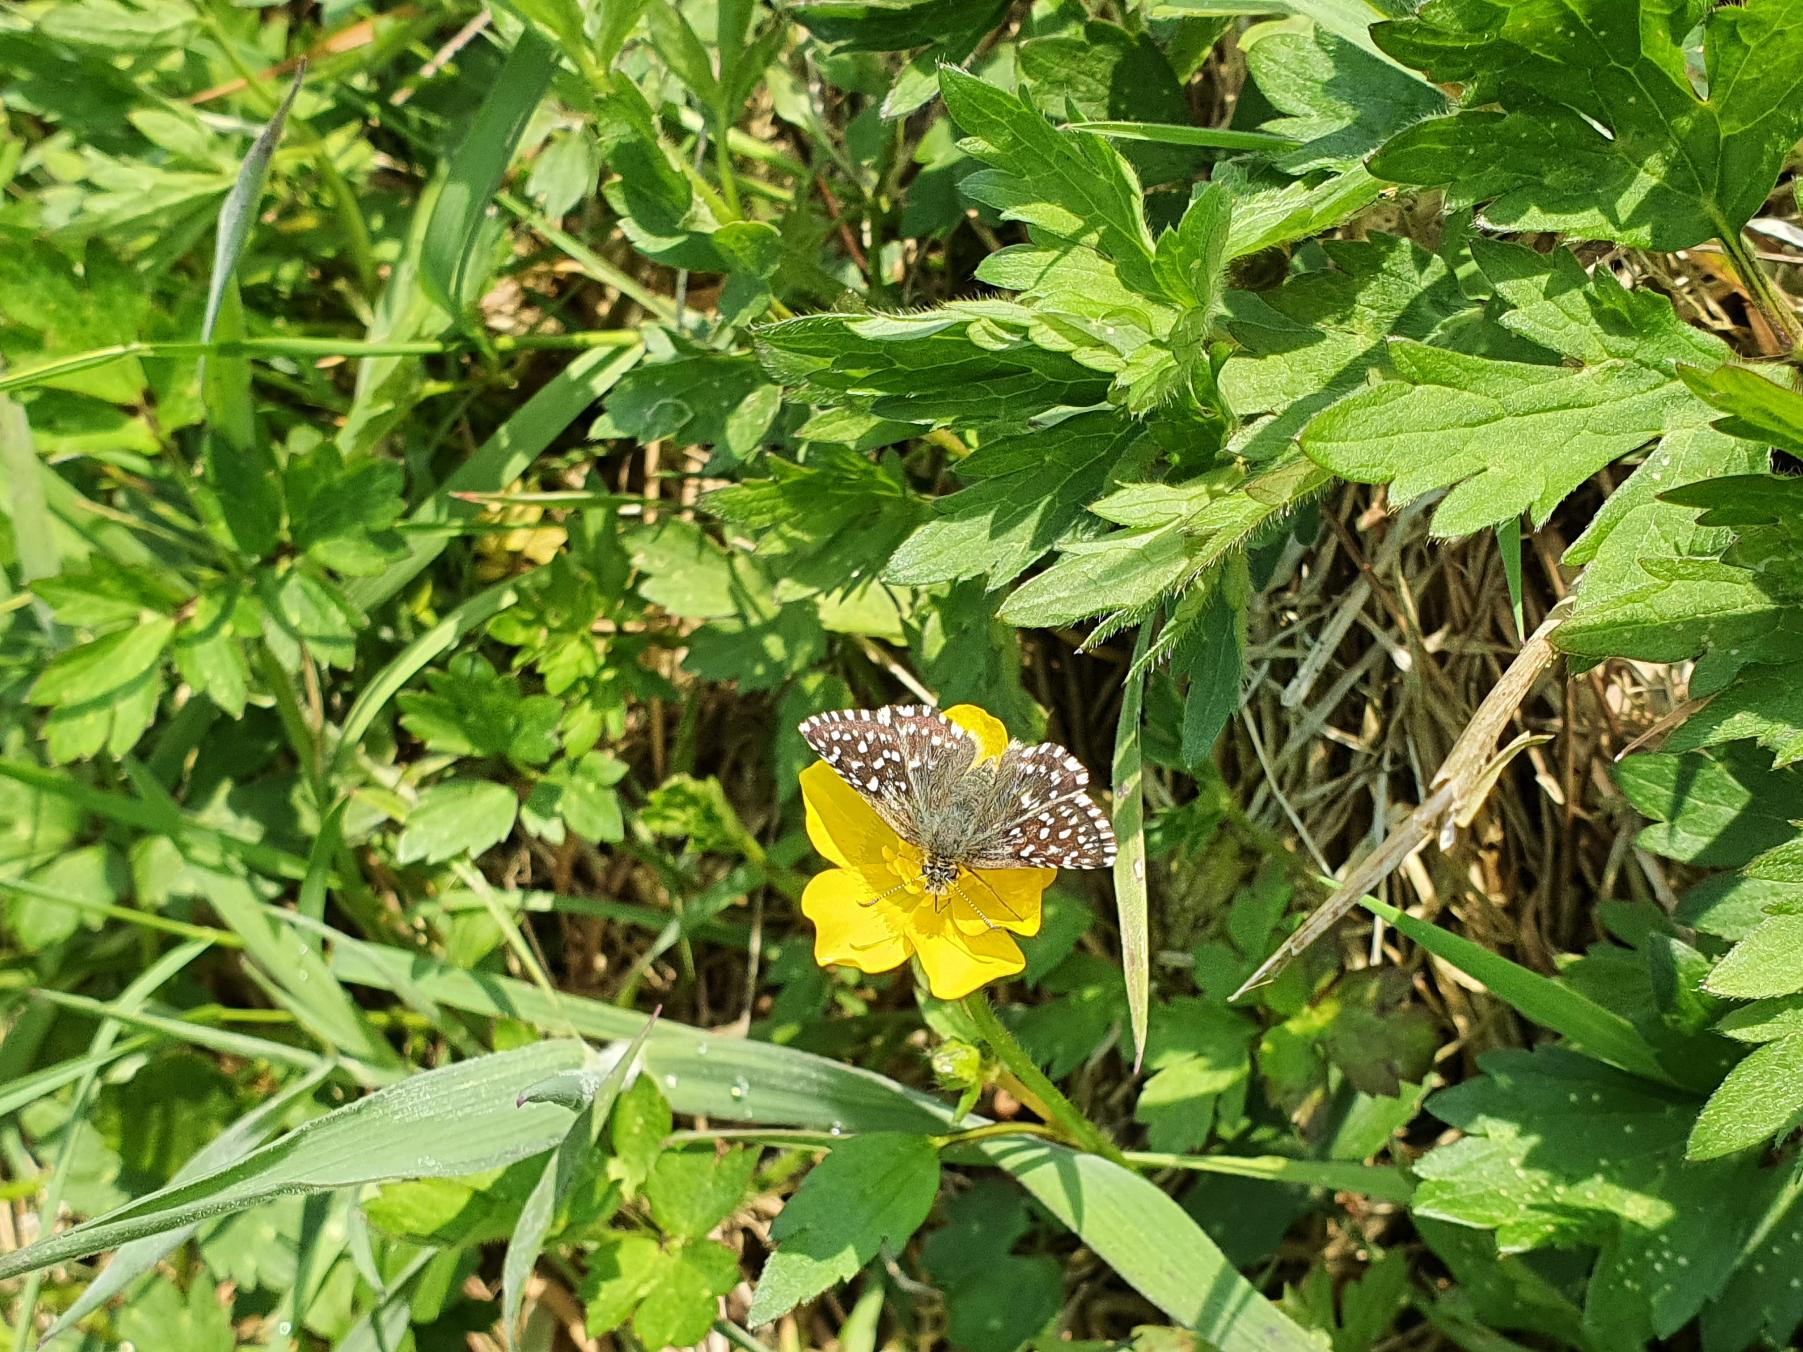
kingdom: Animalia
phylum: Arthropoda
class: Insecta
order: Lepidoptera
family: Hesperiidae
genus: Pyrgus
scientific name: Pyrgus malvae
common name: Spættet bredpande
